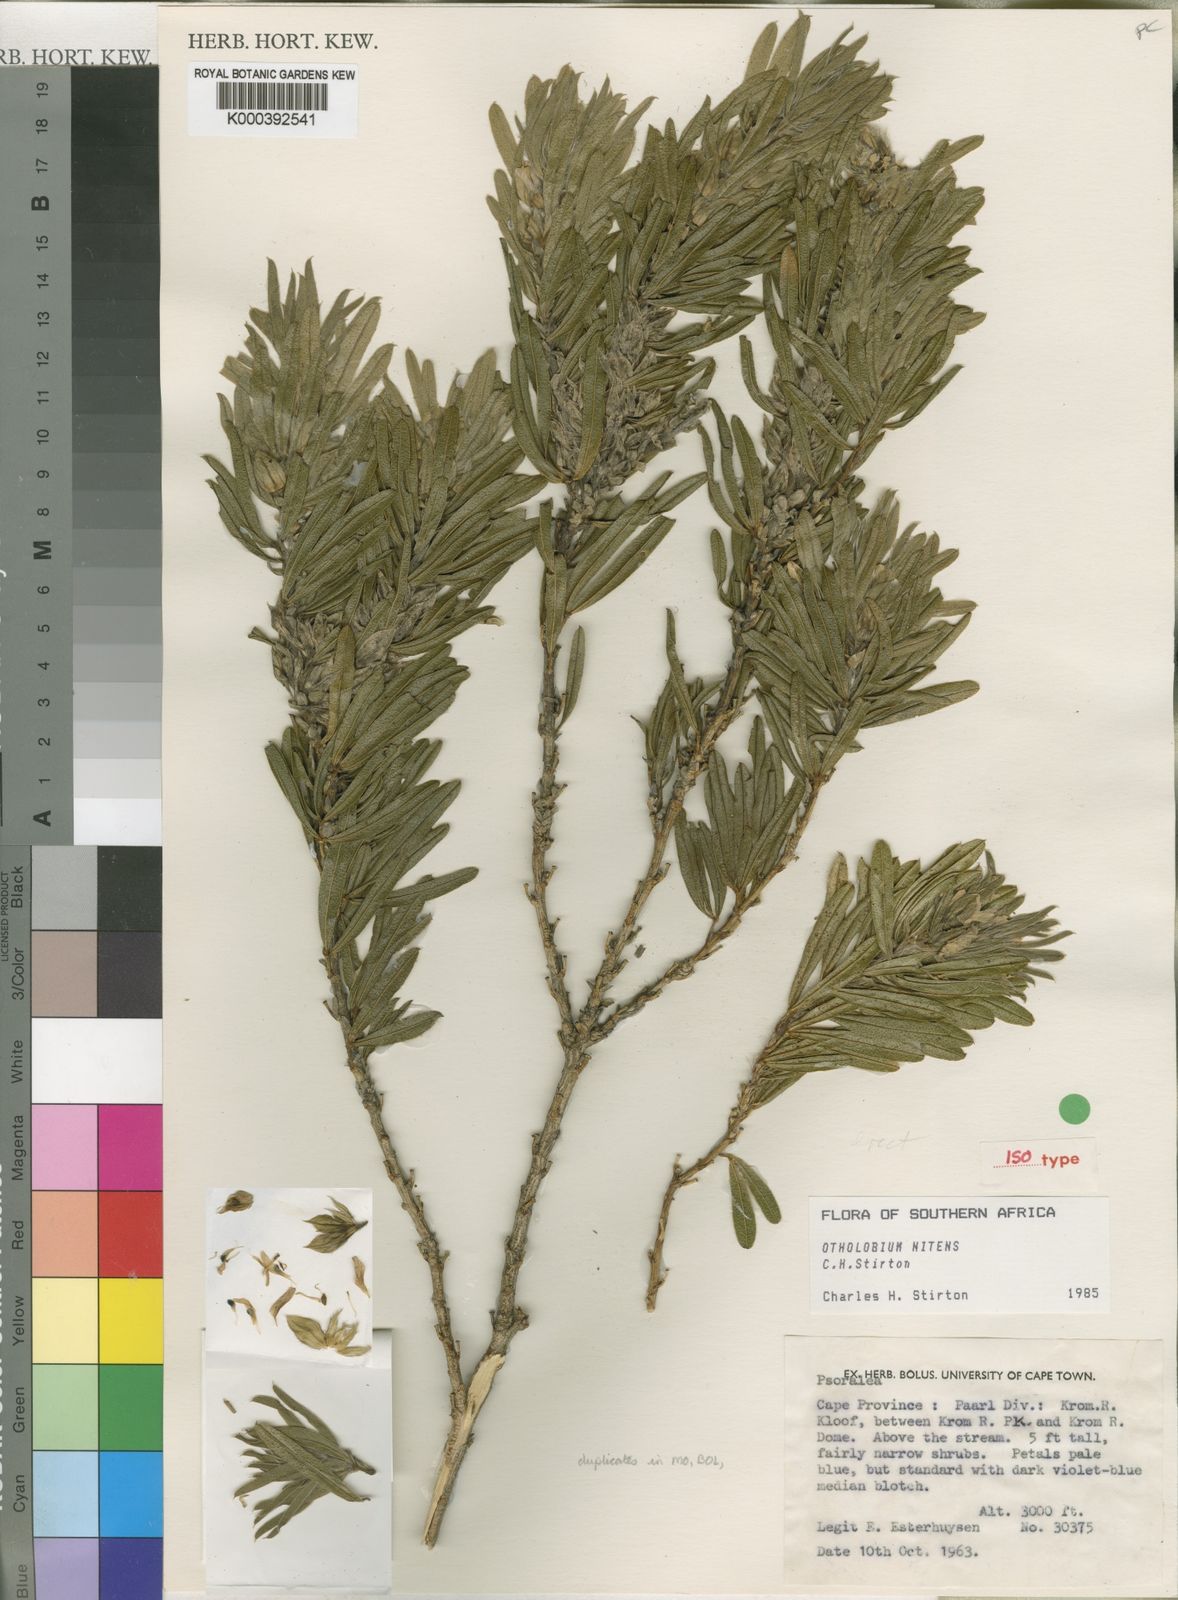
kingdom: Plantae
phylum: Tracheophyta
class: Magnoliopsida
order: Fabales
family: Fabaceae
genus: Psoralea
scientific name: Psoralea nitens
